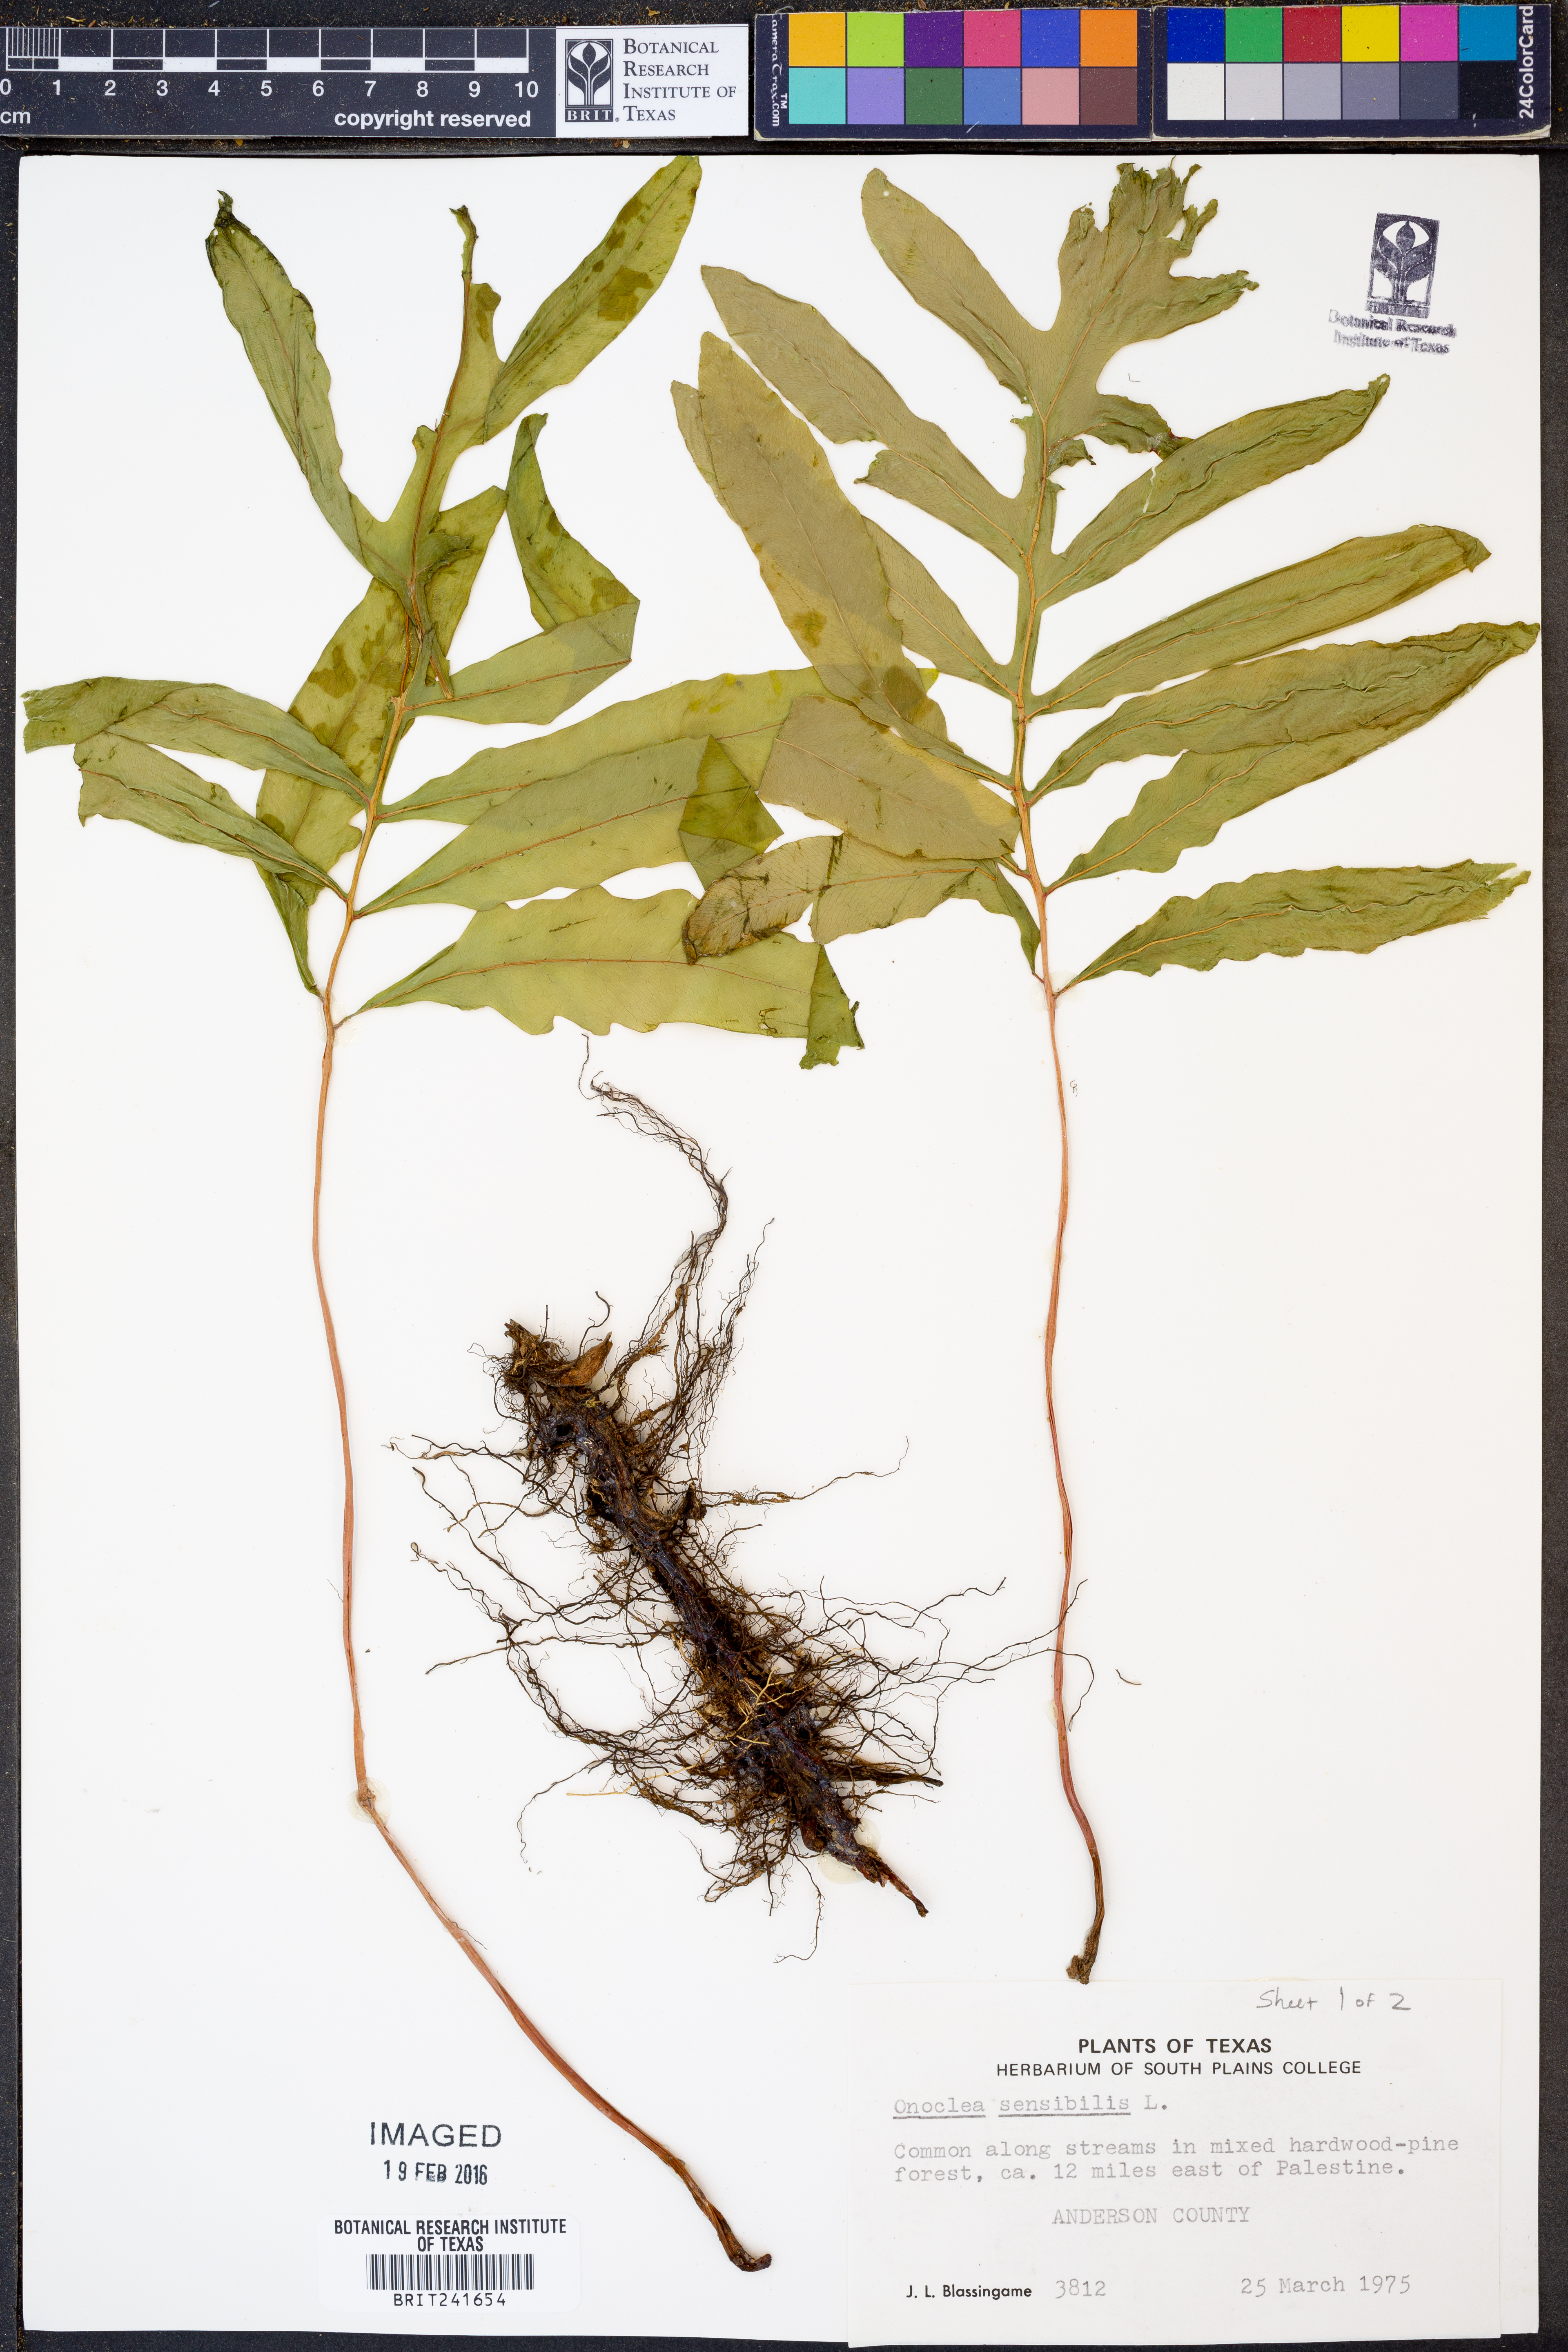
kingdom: Plantae
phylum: Tracheophyta
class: Polypodiopsida
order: Polypodiales
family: Onocleaceae
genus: Onoclea
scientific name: Onoclea sensibilis
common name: Sensitive fern
